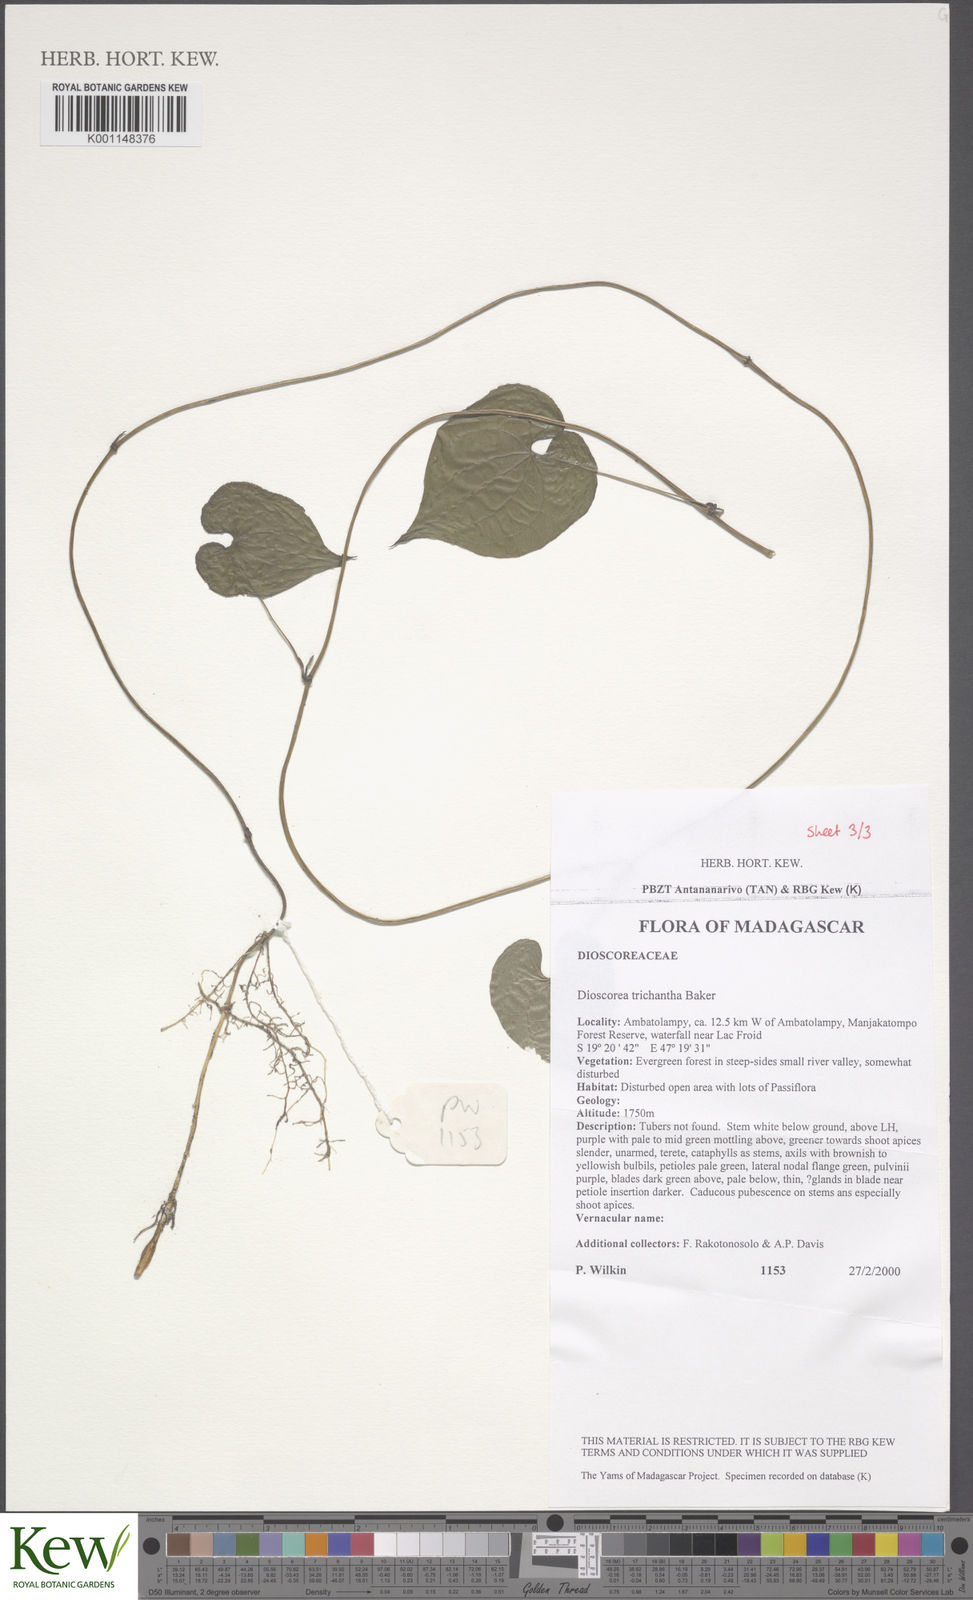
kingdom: Plantae
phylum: Tracheophyta
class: Liliopsida
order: Dioscoreales
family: Dioscoreaceae
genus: Dioscorea
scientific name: Dioscorea trichantha
